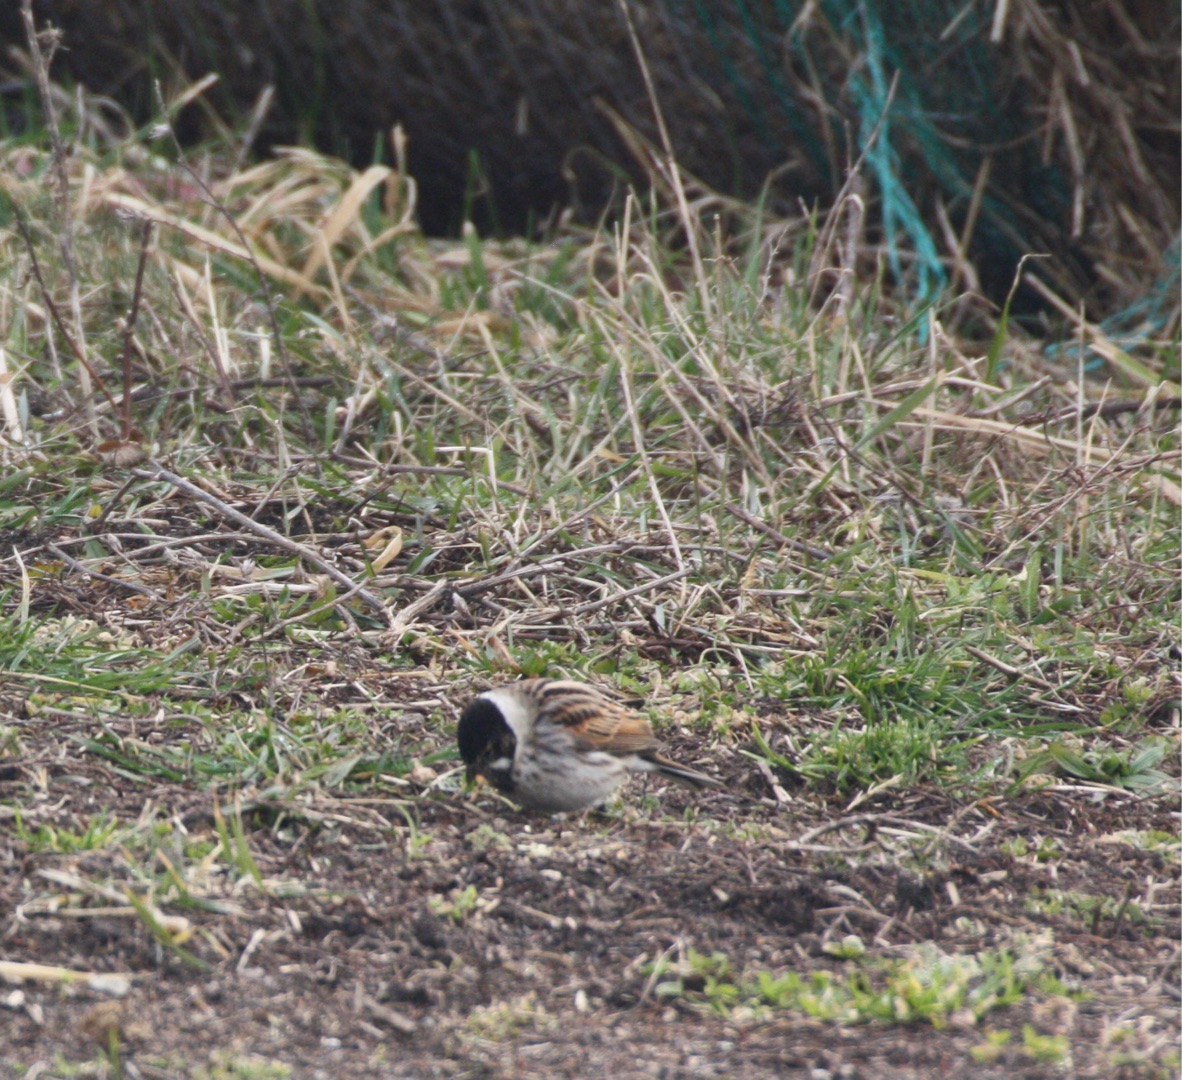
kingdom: Animalia
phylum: Chordata
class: Aves
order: Passeriformes
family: Emberizidae
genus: Emberiza
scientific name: Emberiza schoeniclus
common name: Rørspurv
